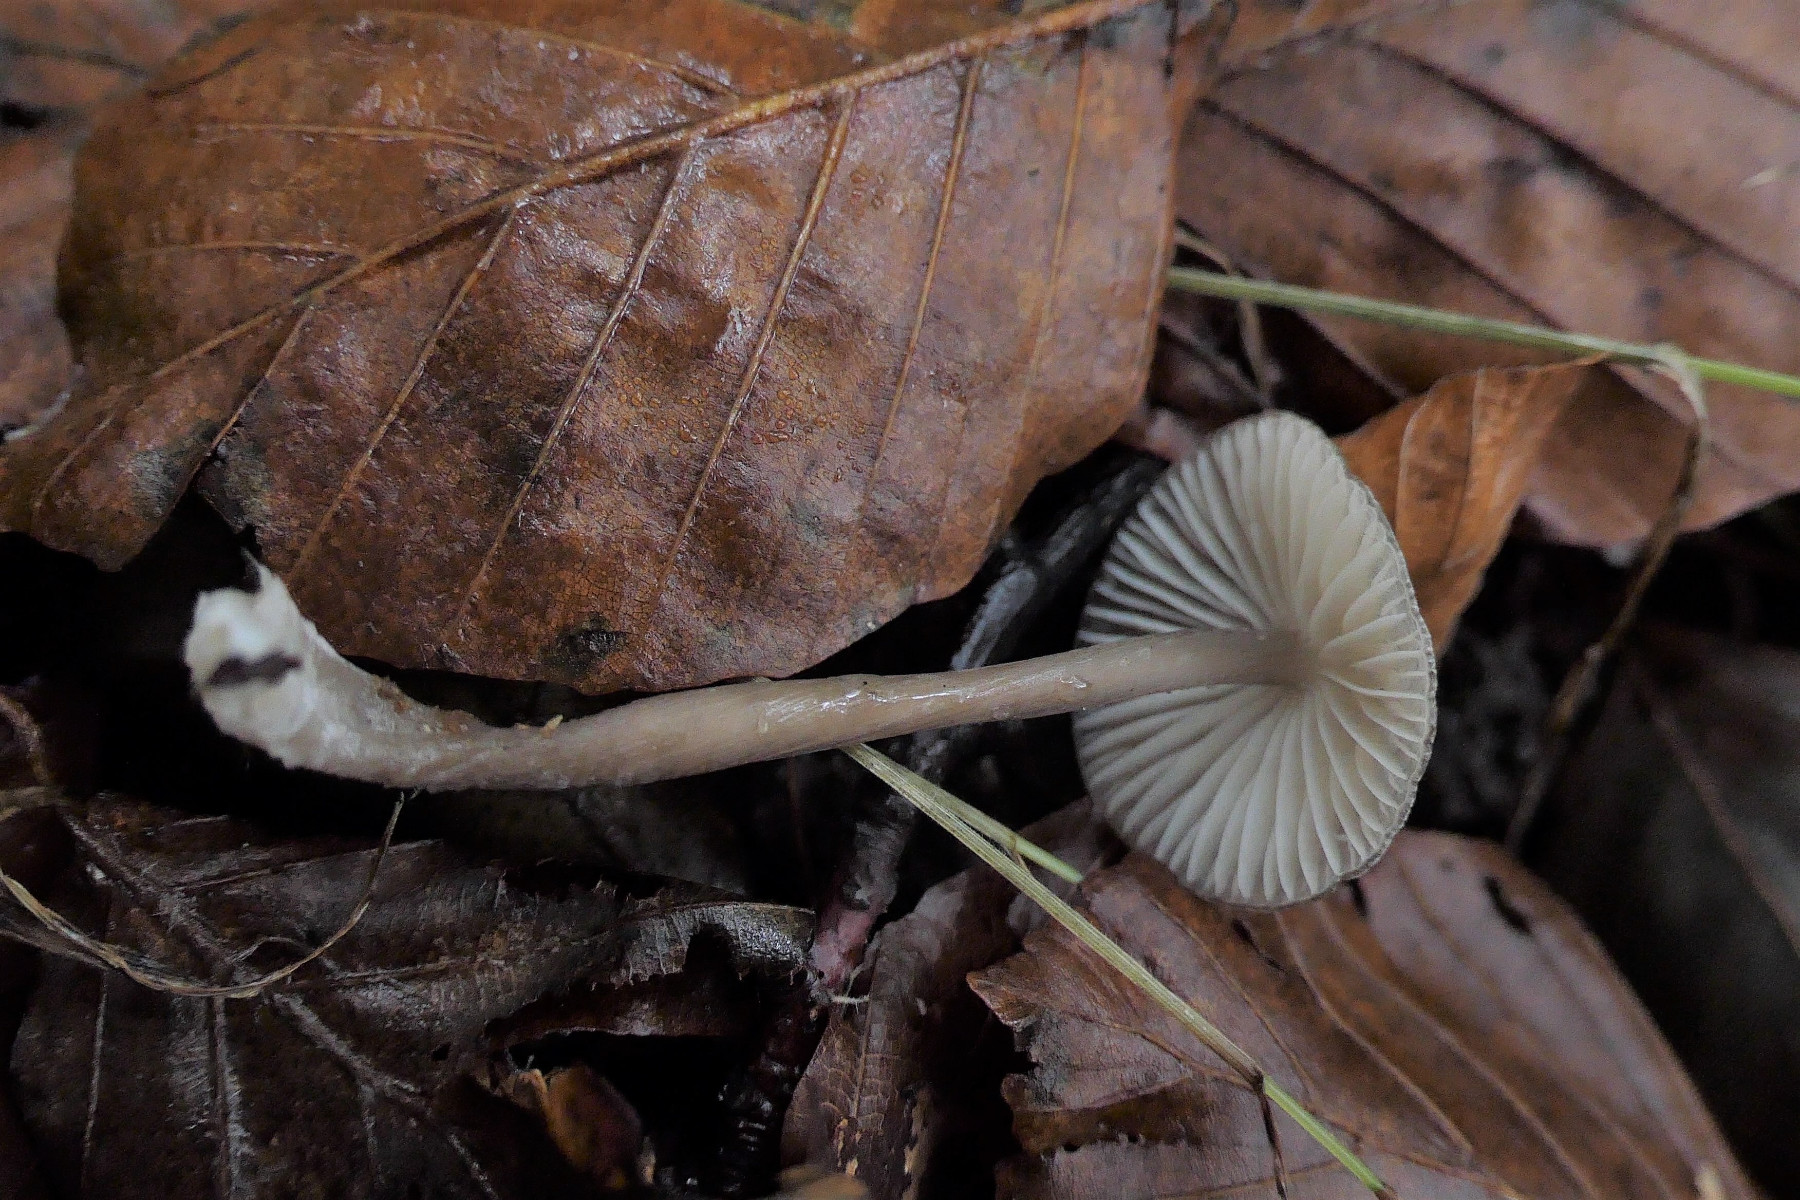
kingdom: Fungi
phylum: Basidiomycota
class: Agaricomycetes
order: Agaricales
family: Mycenaceae
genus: Mycena
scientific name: Mycena polygramma
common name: mangestribet huesvamp
